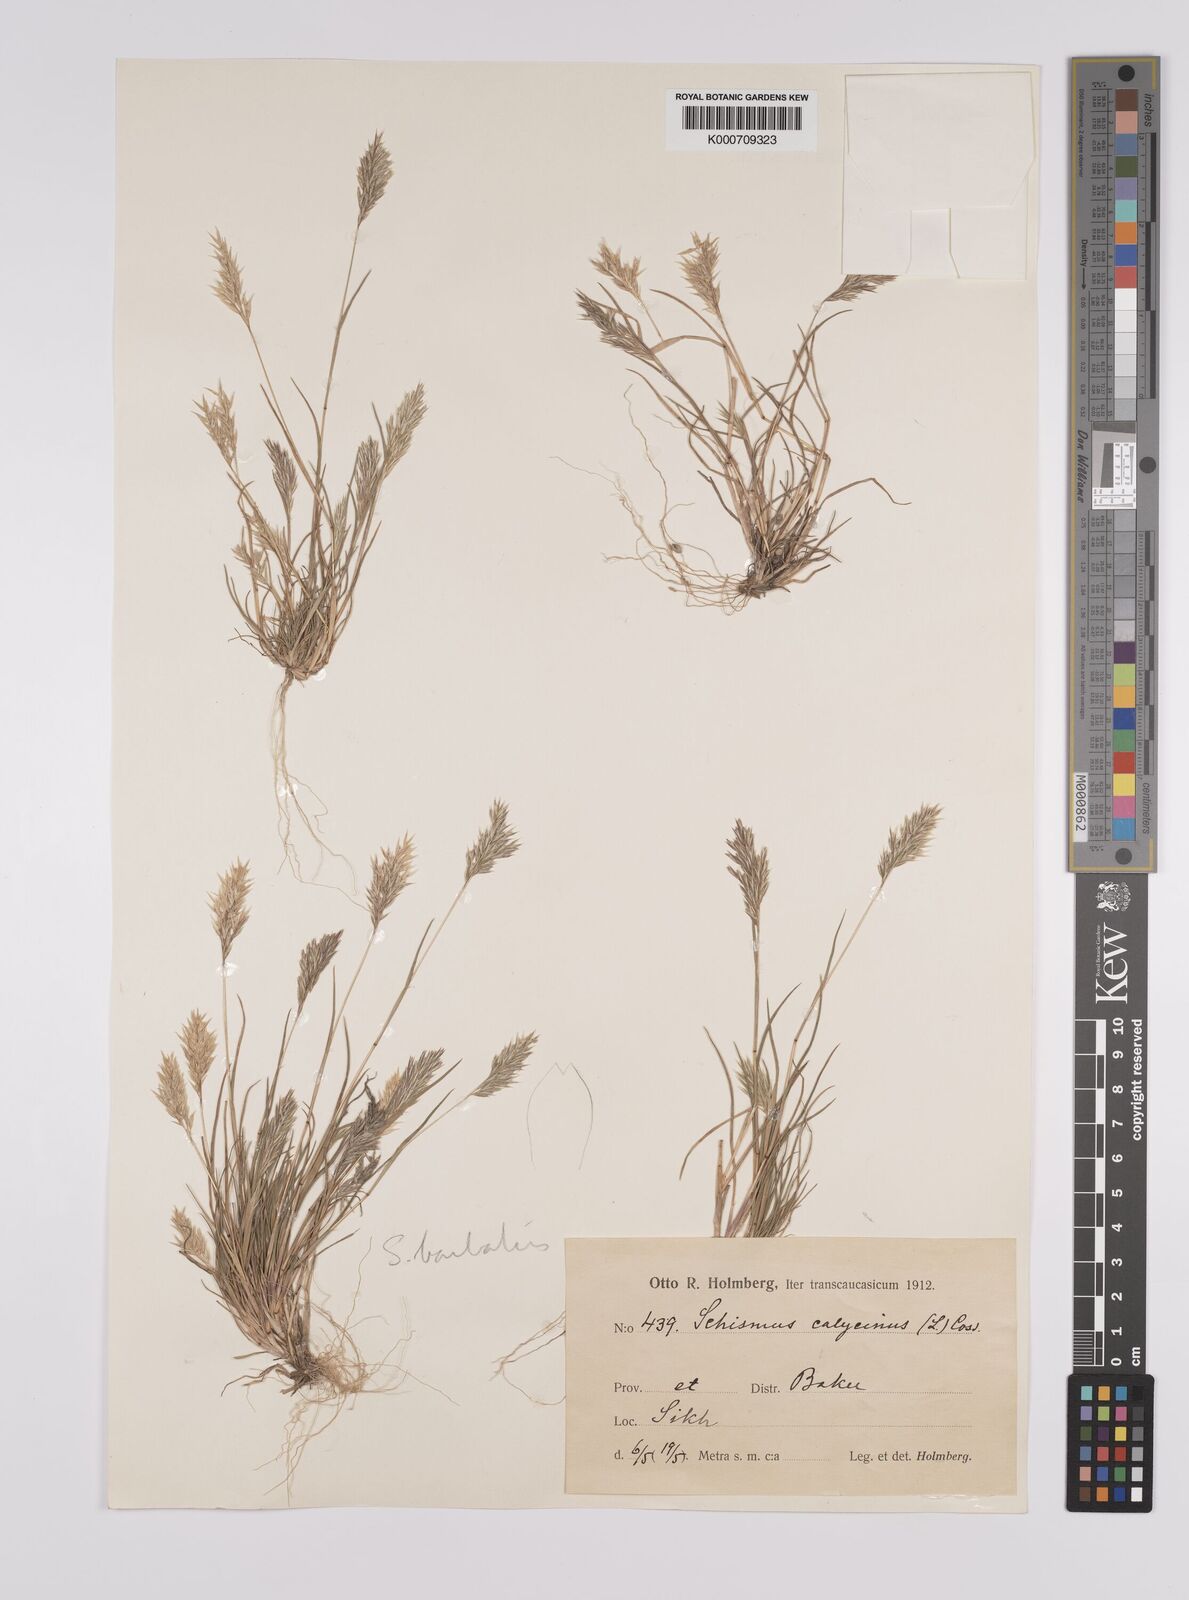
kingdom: Plantae
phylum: Tracheophyta
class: Liliopsida
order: Poales
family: Poaceae
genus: Schismus
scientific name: Schismus arabicus
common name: Arabian schismus
